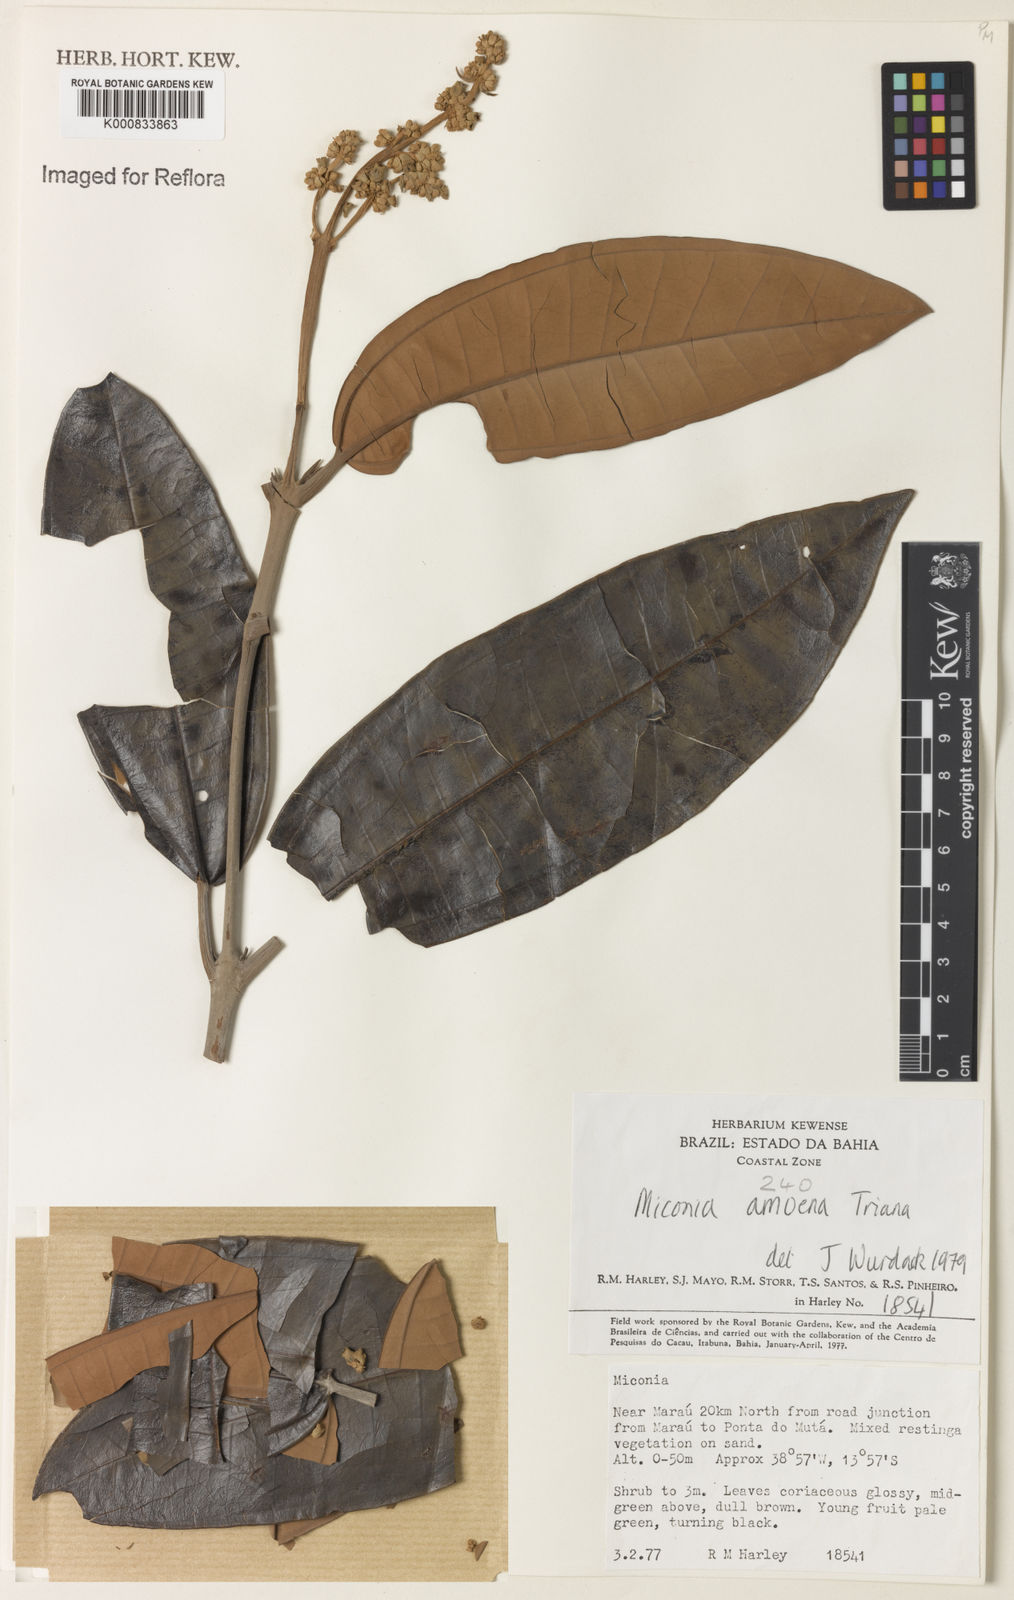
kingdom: Plantae
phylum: Tracheophyta
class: Magnoliopsida
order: Myrtales
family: Melastomataceae
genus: Miconia
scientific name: Miconia amoena
